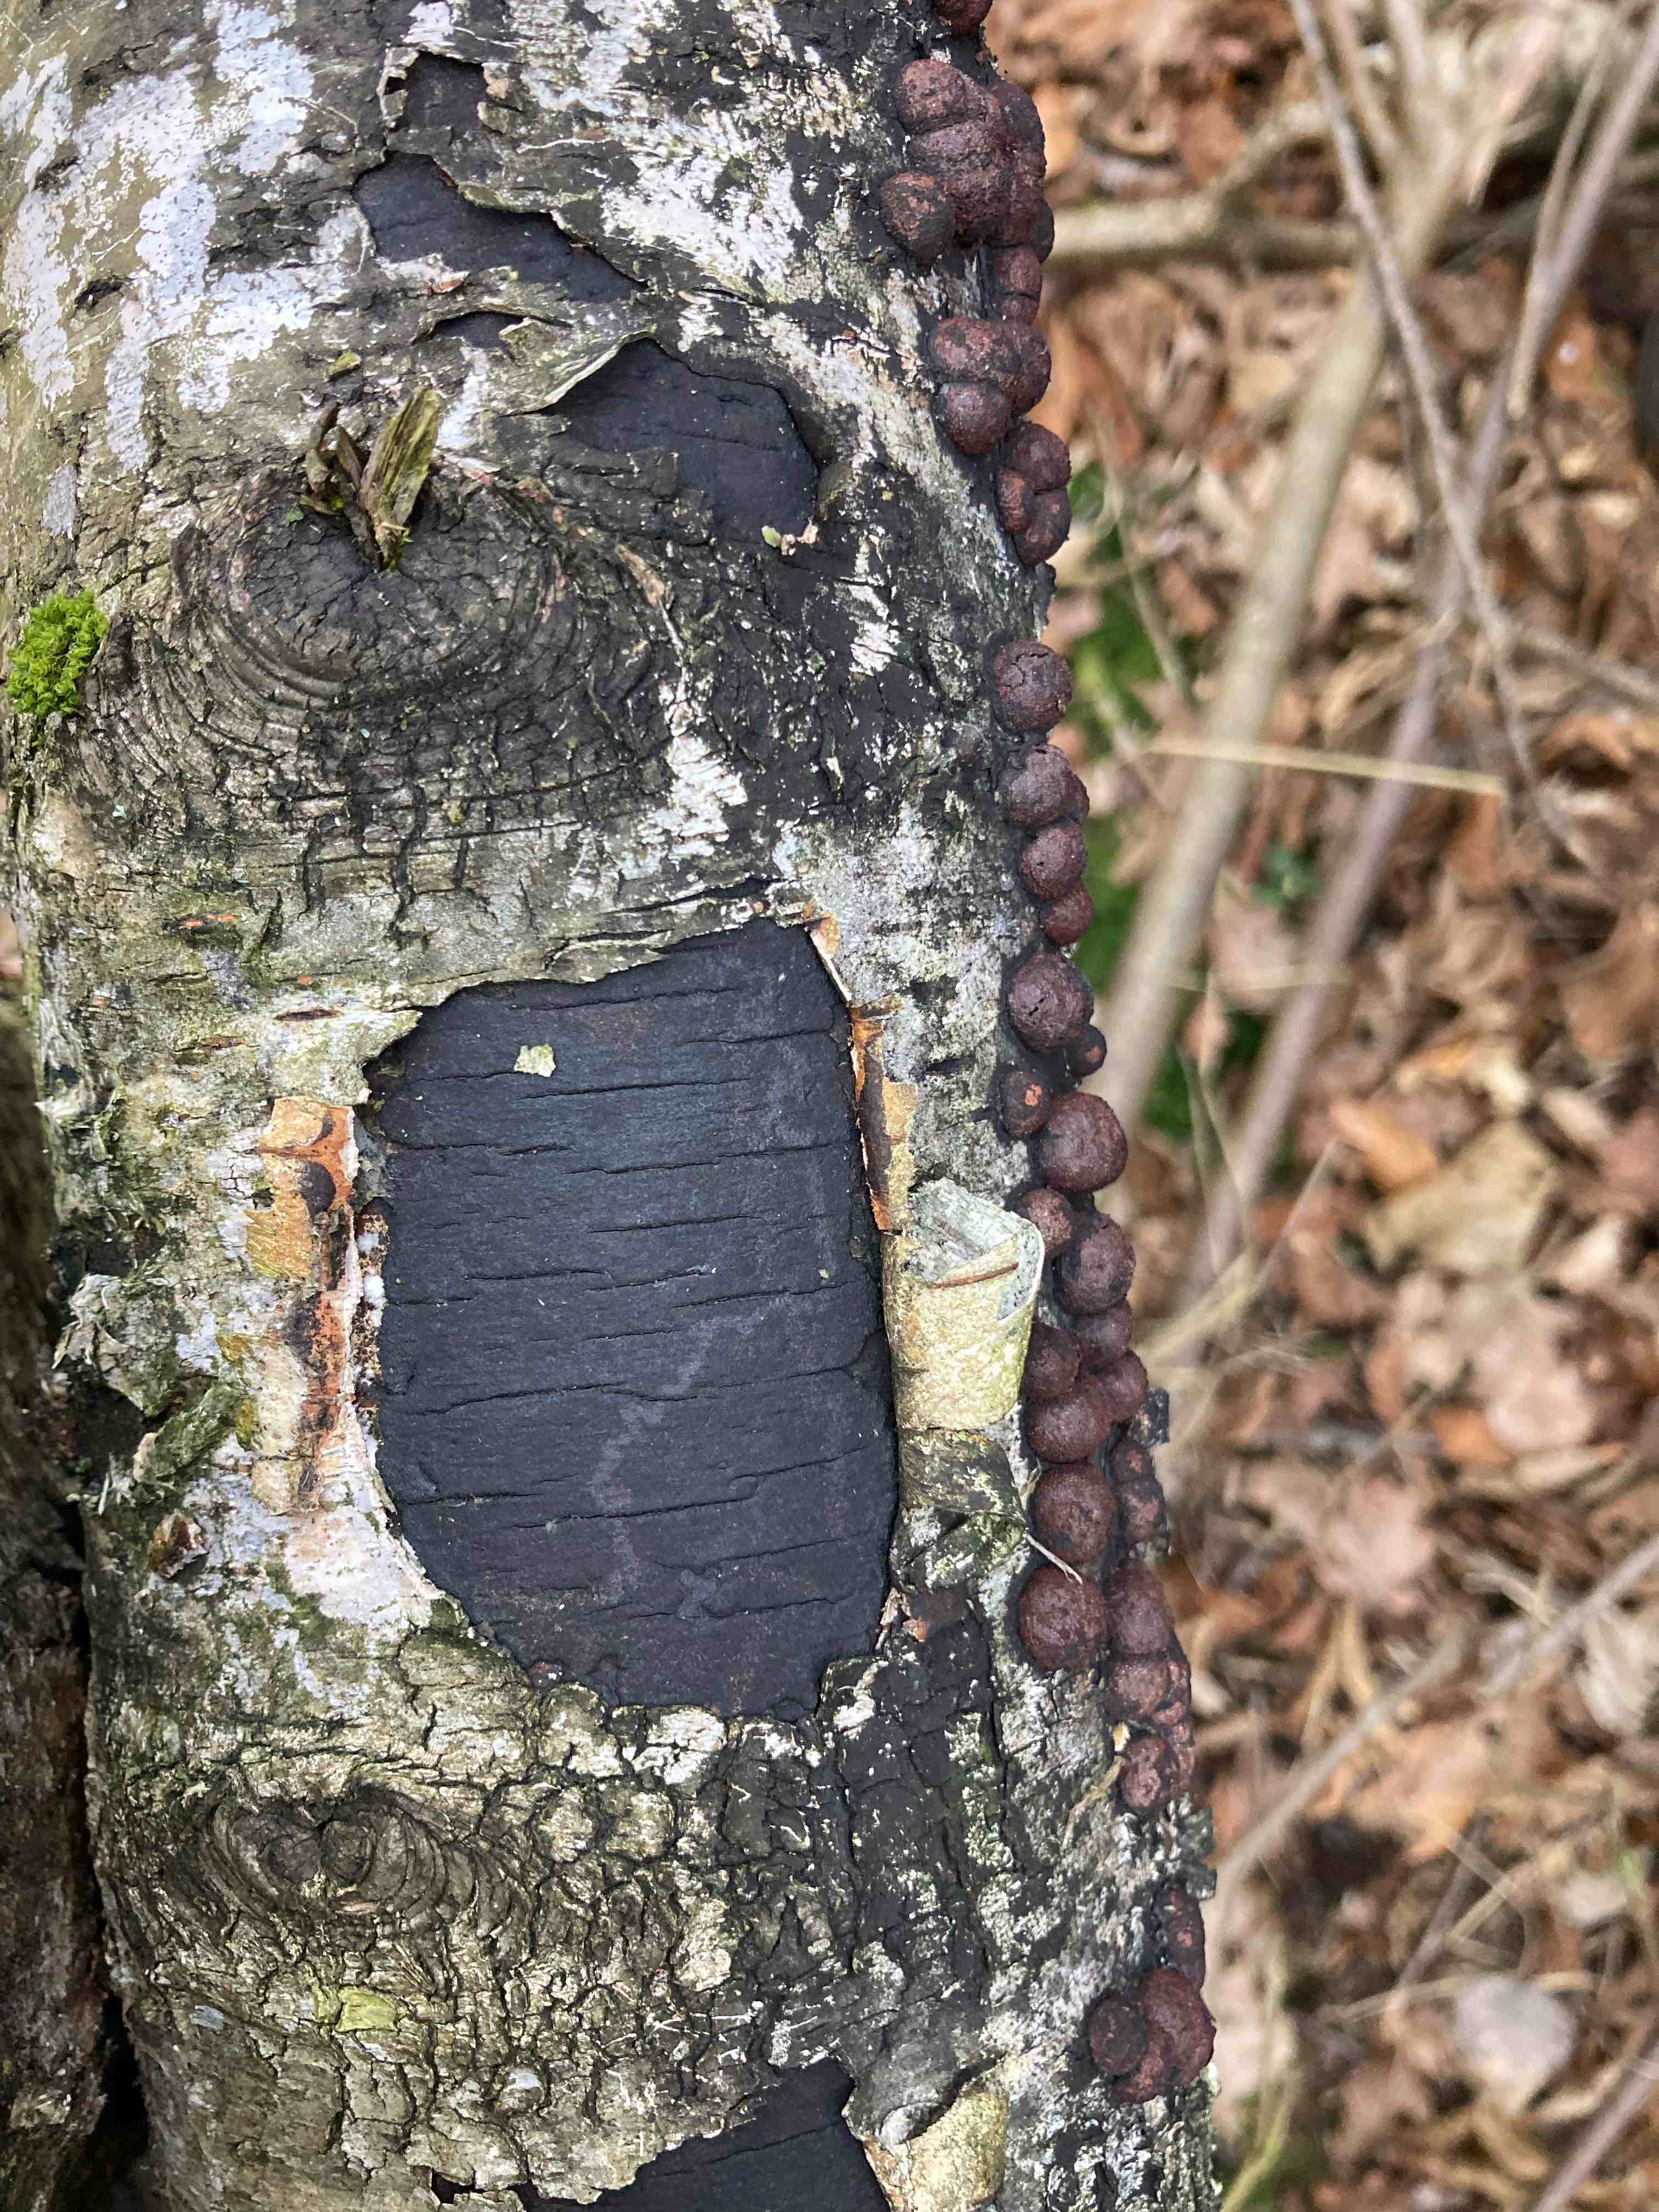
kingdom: Fungi
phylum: Ascomycota
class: Sordariomycetes
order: Xylariales
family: Diatrypaceae
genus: Diatrype
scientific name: Diatrype
